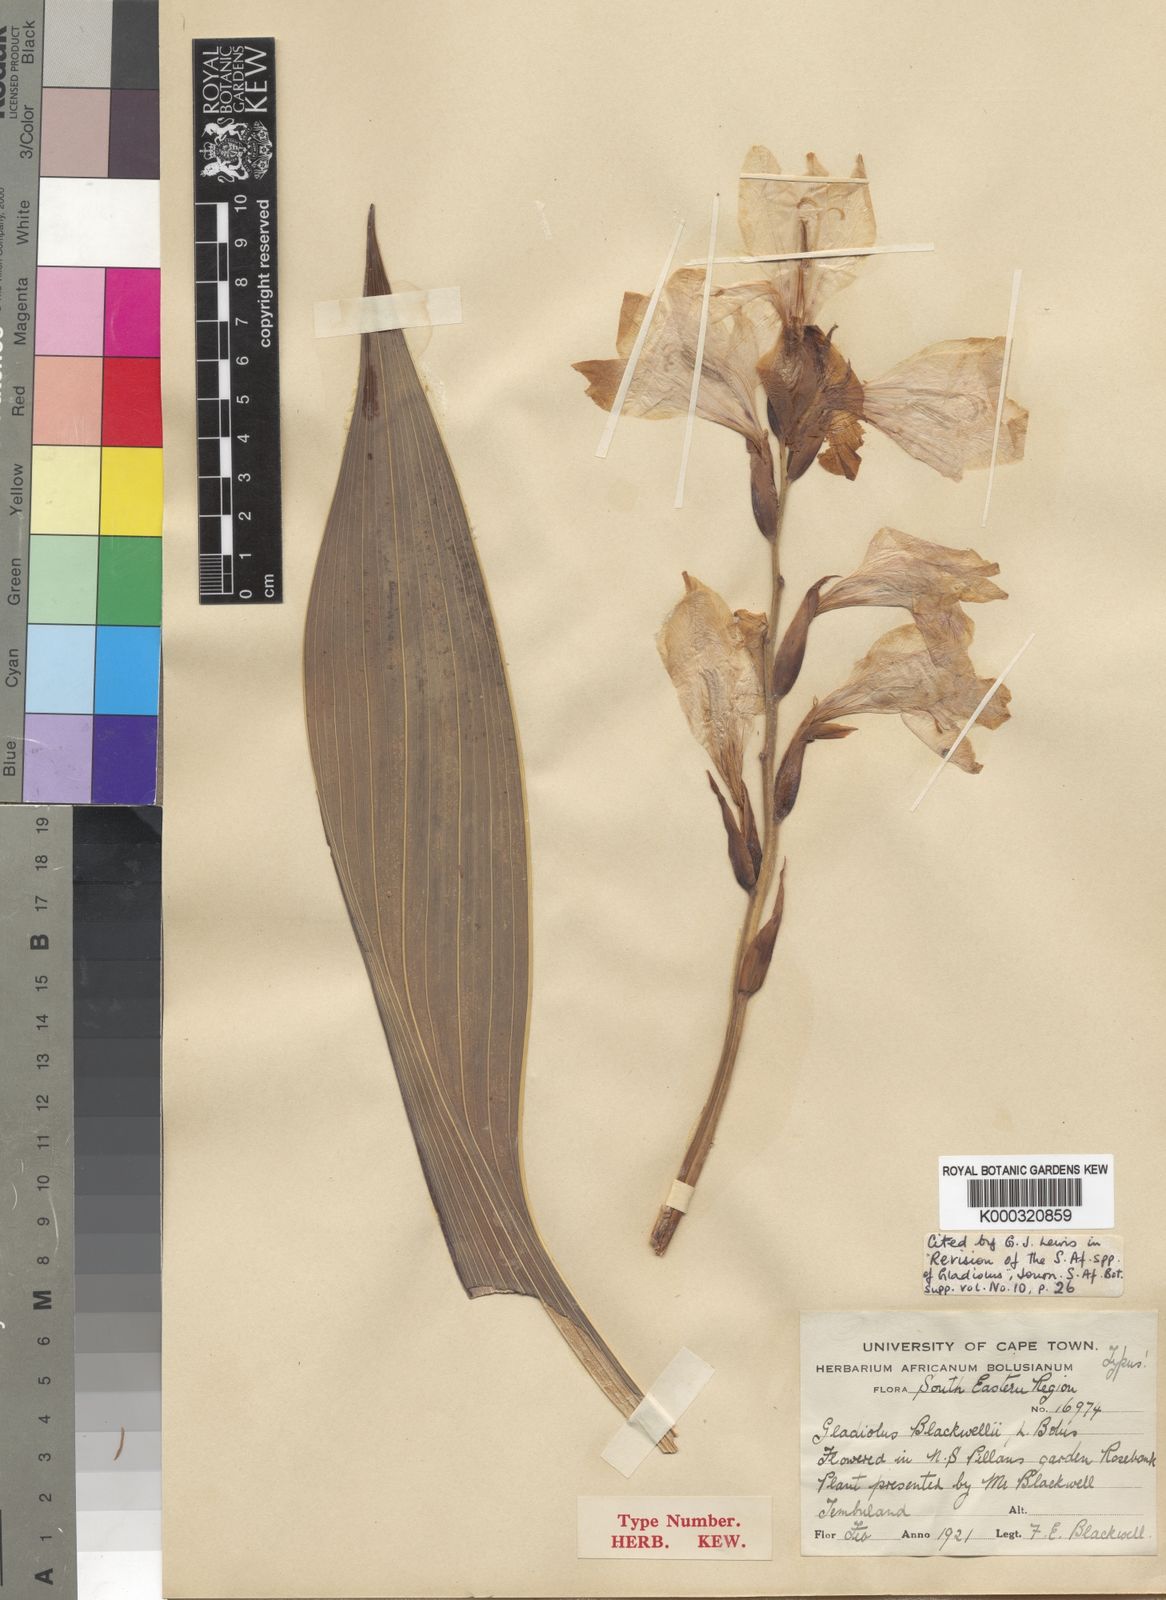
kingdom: Plantae
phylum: Tracheophyta
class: Liliopsida
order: Asparagales
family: Iridaceae
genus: Gladiolus
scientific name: Gladiolus oppositiflorus
